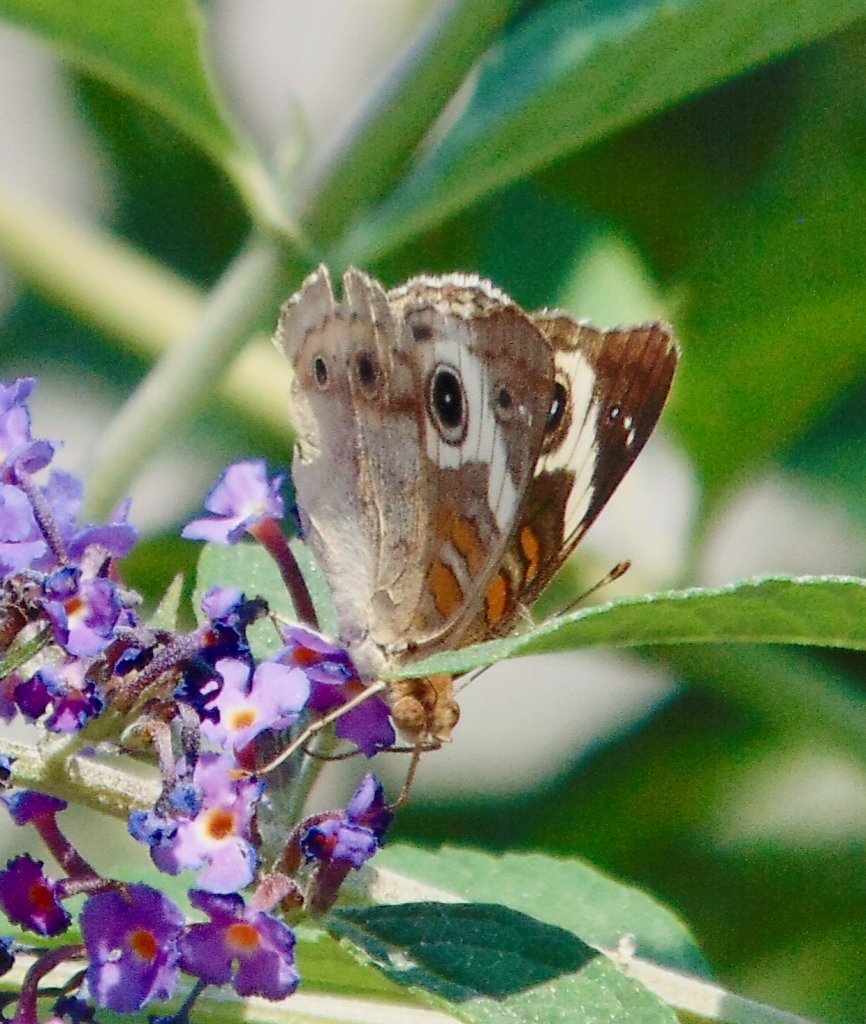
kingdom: Animalia
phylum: Arthropoda
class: Insecta
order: Lepidoptera
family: Nymphalidae
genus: Junonia
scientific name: Junonia coenia
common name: Common Buckeye
